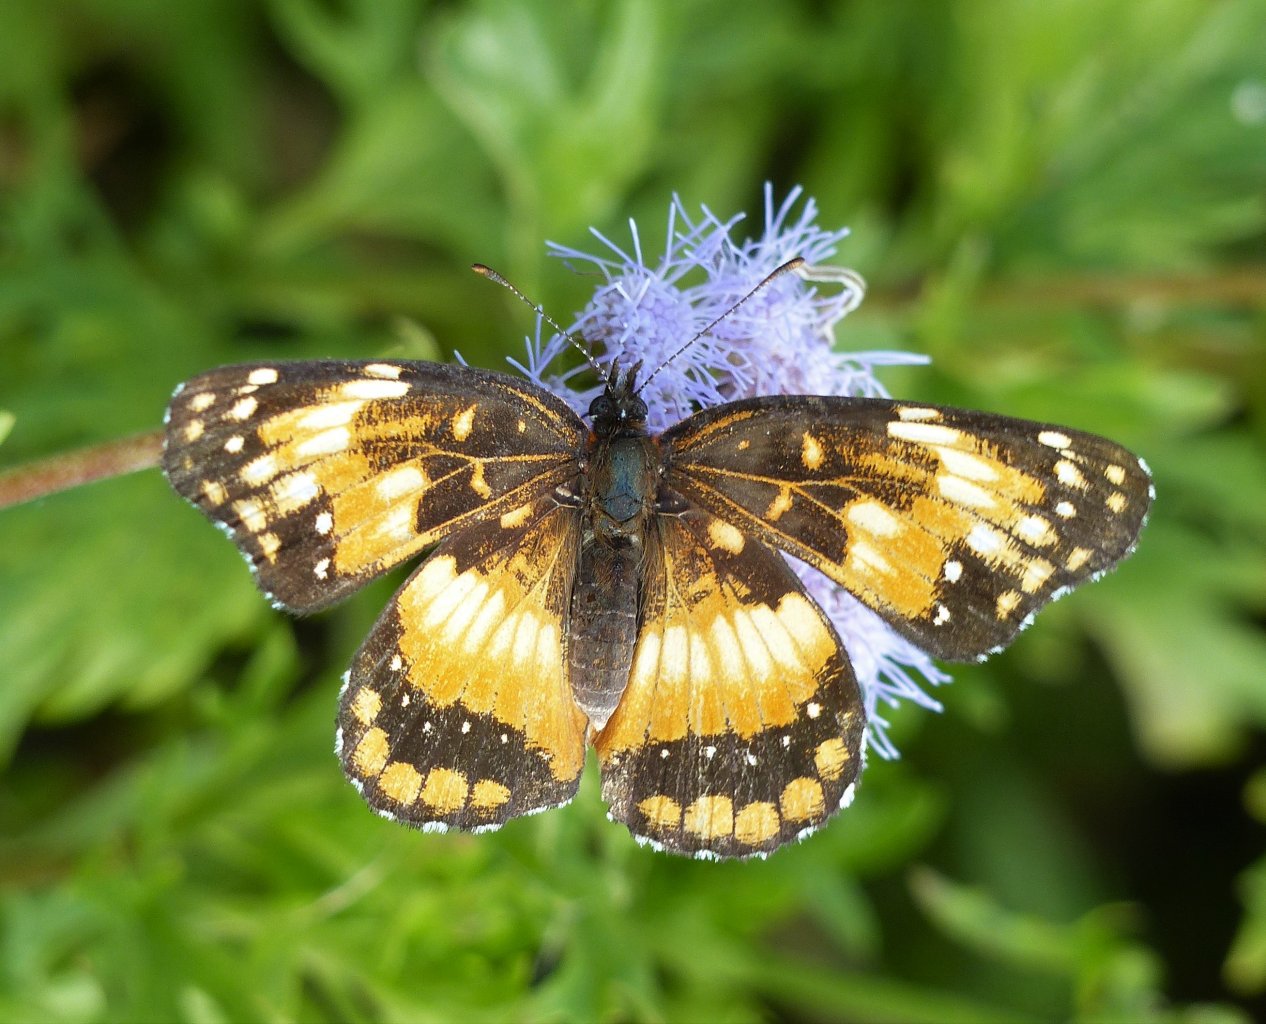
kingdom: Animalia
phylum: Arthropoda
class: Insecta
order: Lepidoptera
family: Nymphalidae
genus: Chlosyne
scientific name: Chlosyne lacinia
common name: Bordered Patch
